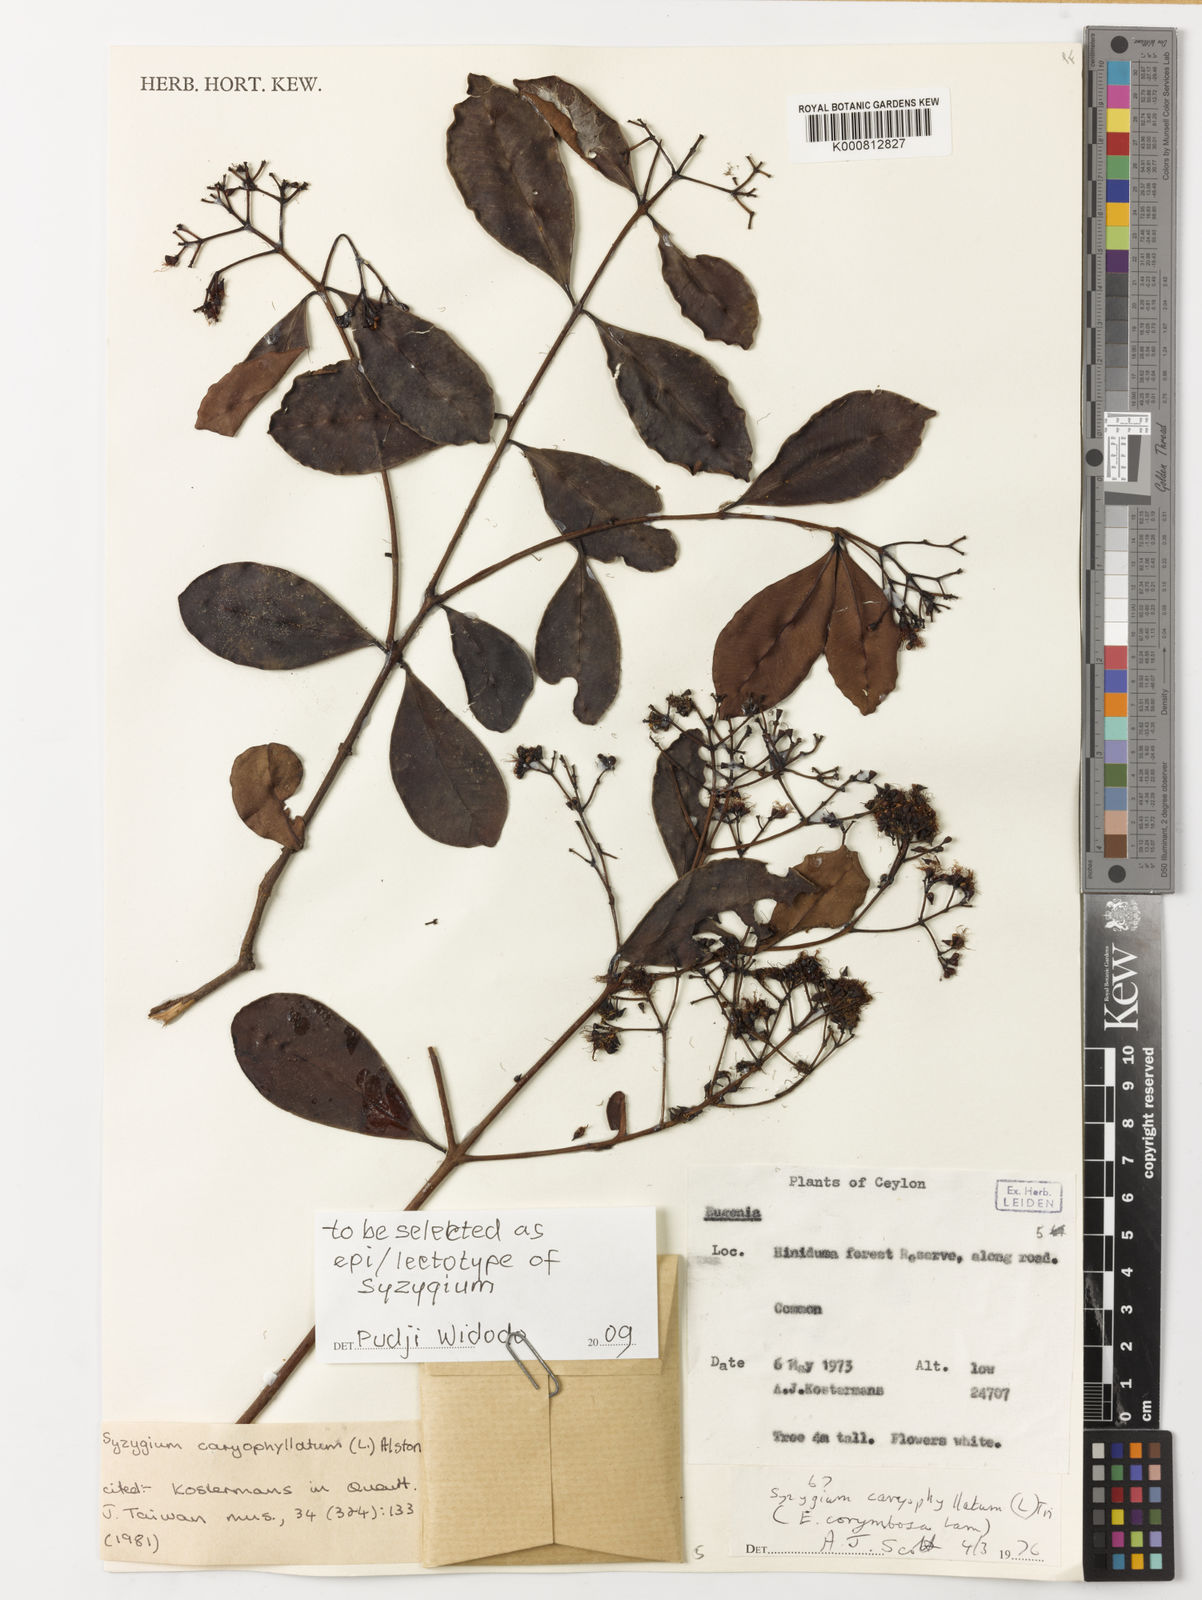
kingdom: Plantae
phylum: Tracheophyta
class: Magnoliopsida
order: Myrtales
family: Myrtaceae
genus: Syzygium
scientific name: Syzygium caryophyllatum
